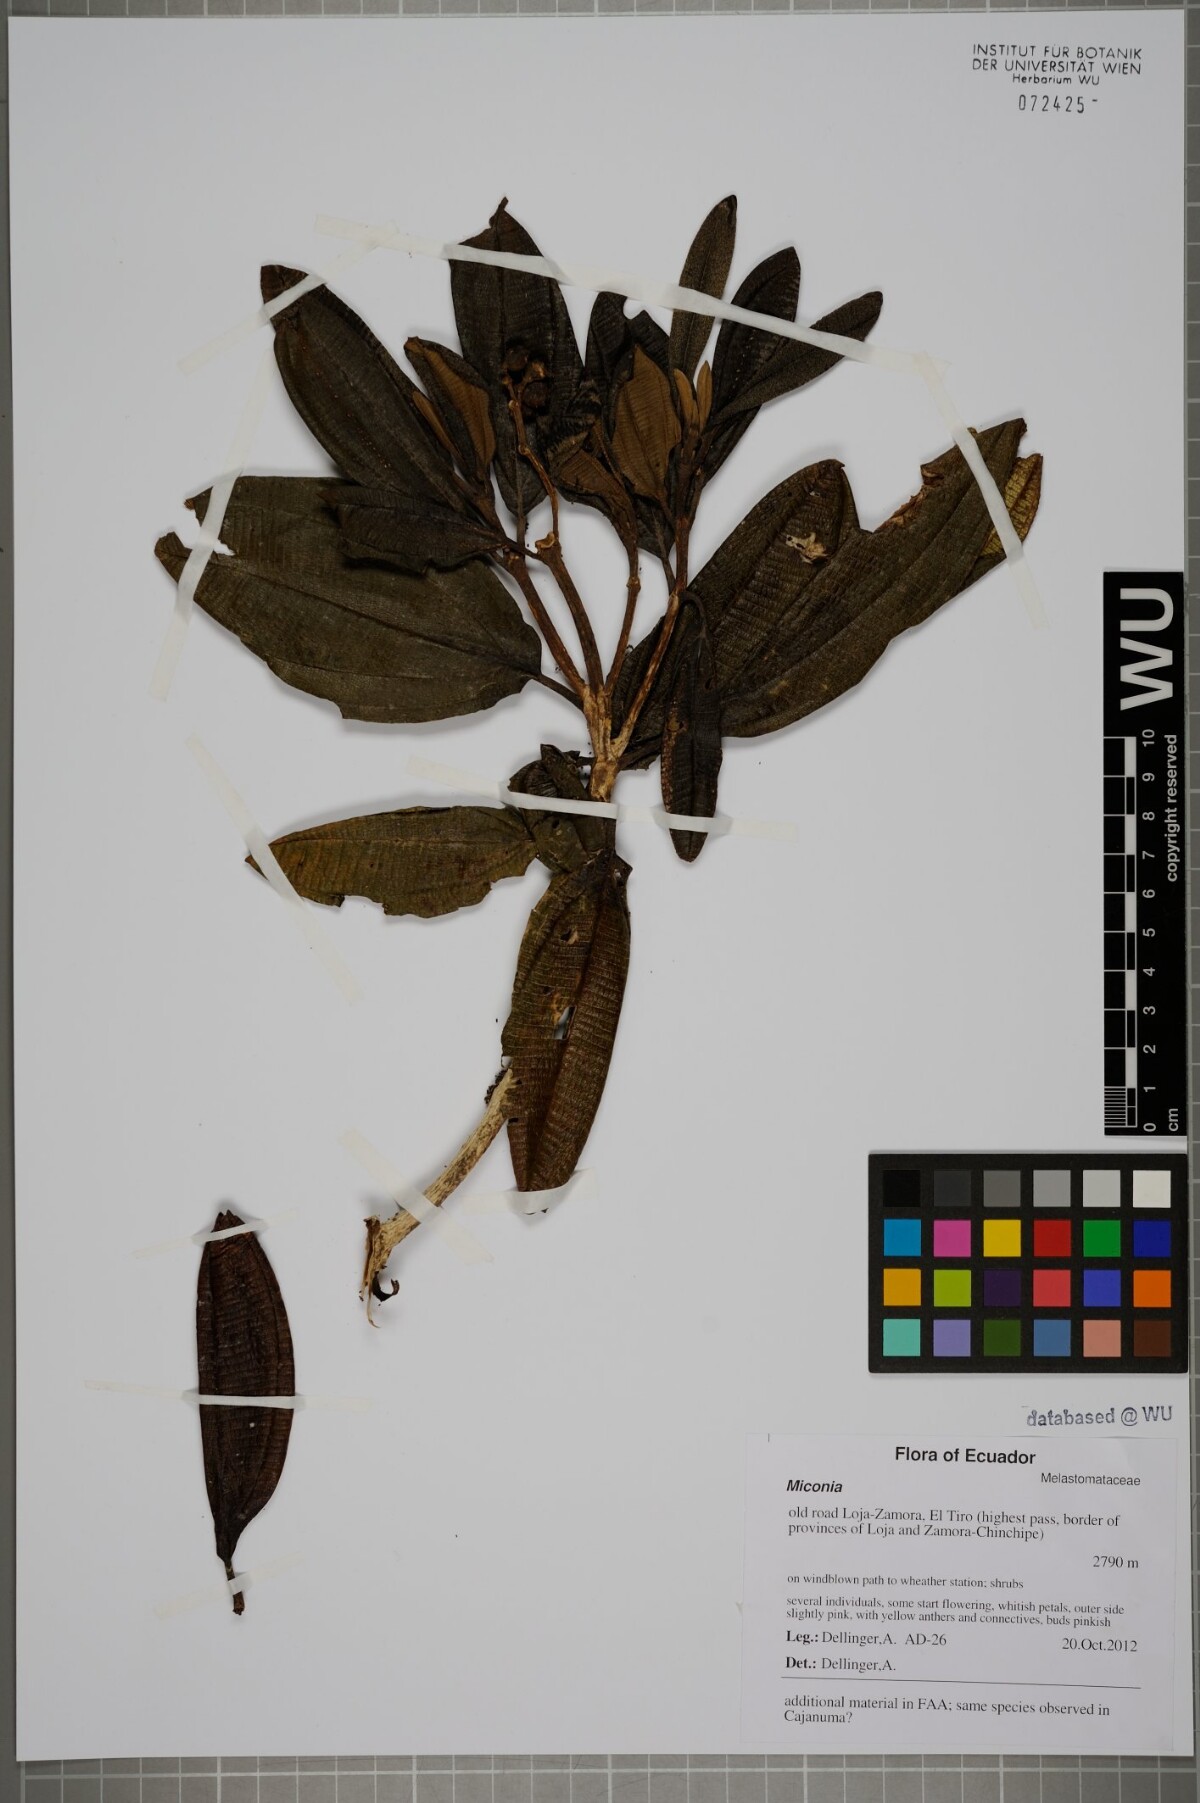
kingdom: Plantae
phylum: Tracheophyta
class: Magnoliopsida
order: Myrtales
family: Melastomataceae
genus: Miconia
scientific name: Miconia
